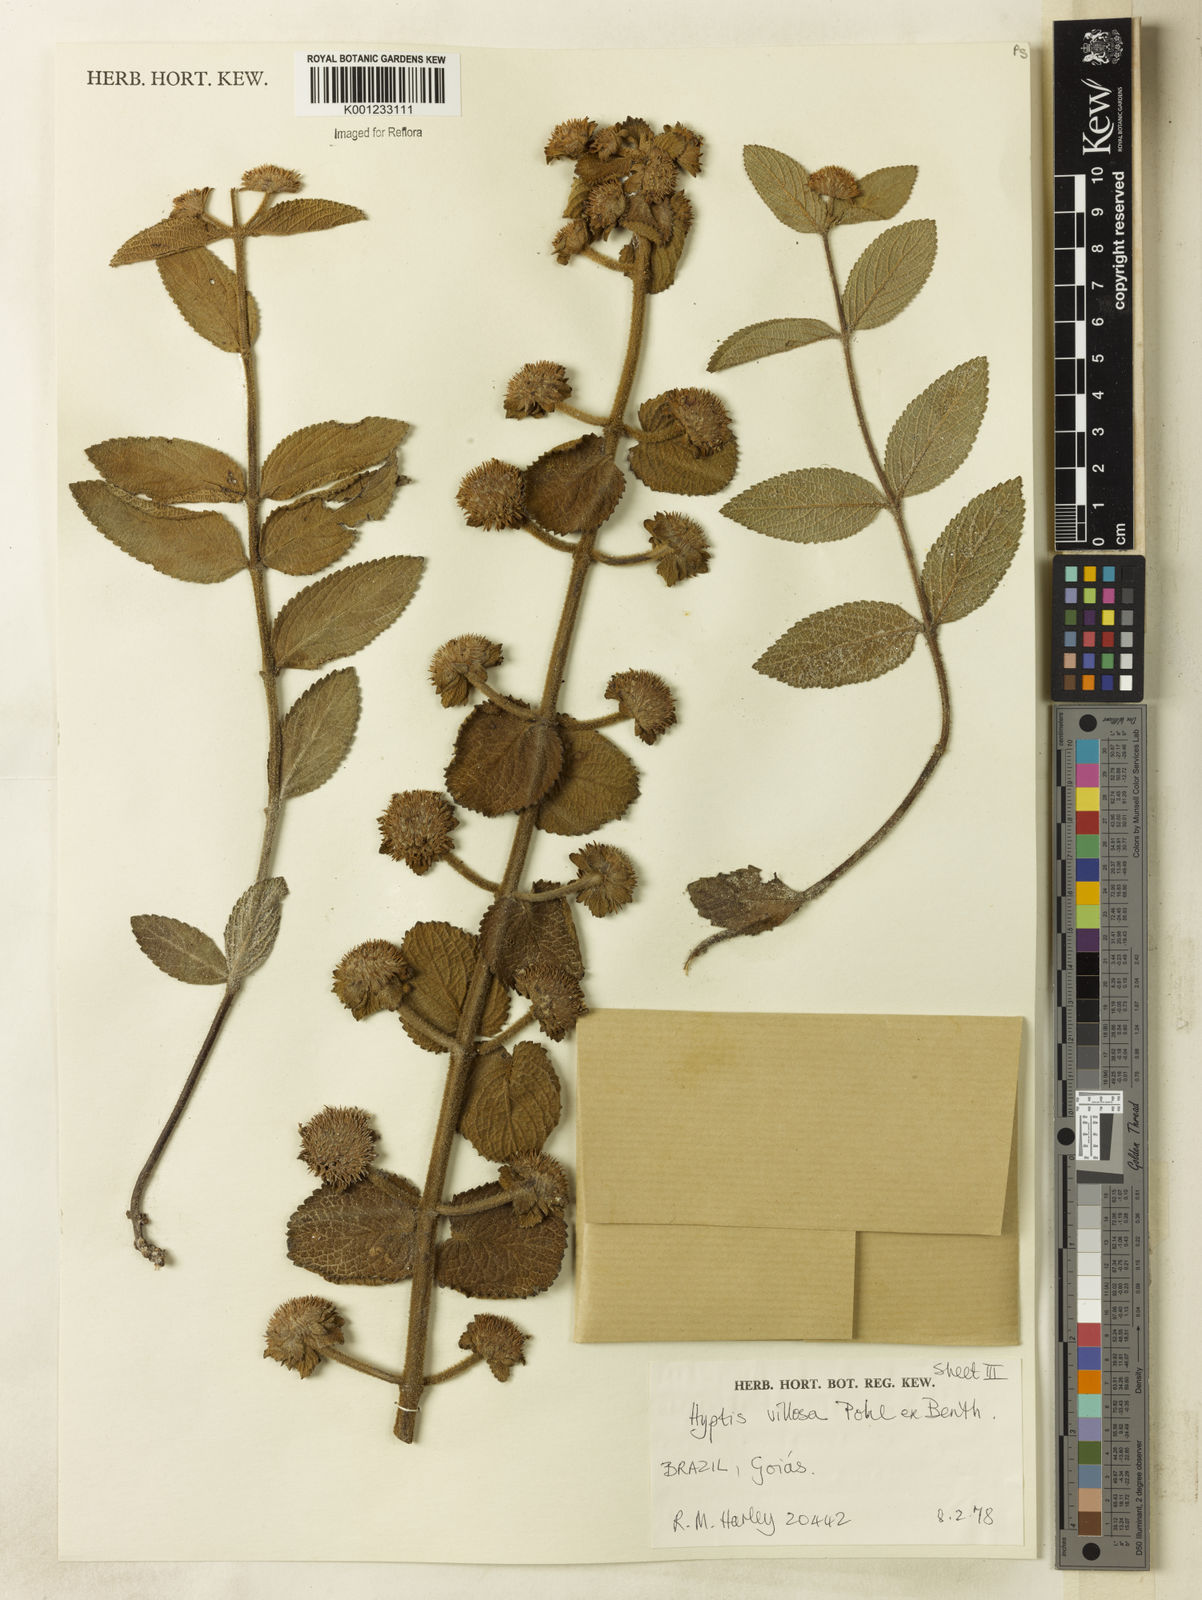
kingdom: Plantae
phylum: Tracheophyta
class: Magnoliopsida
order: Lamiales
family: Lamiaceae
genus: Hyptis
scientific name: Hyptis villosa
